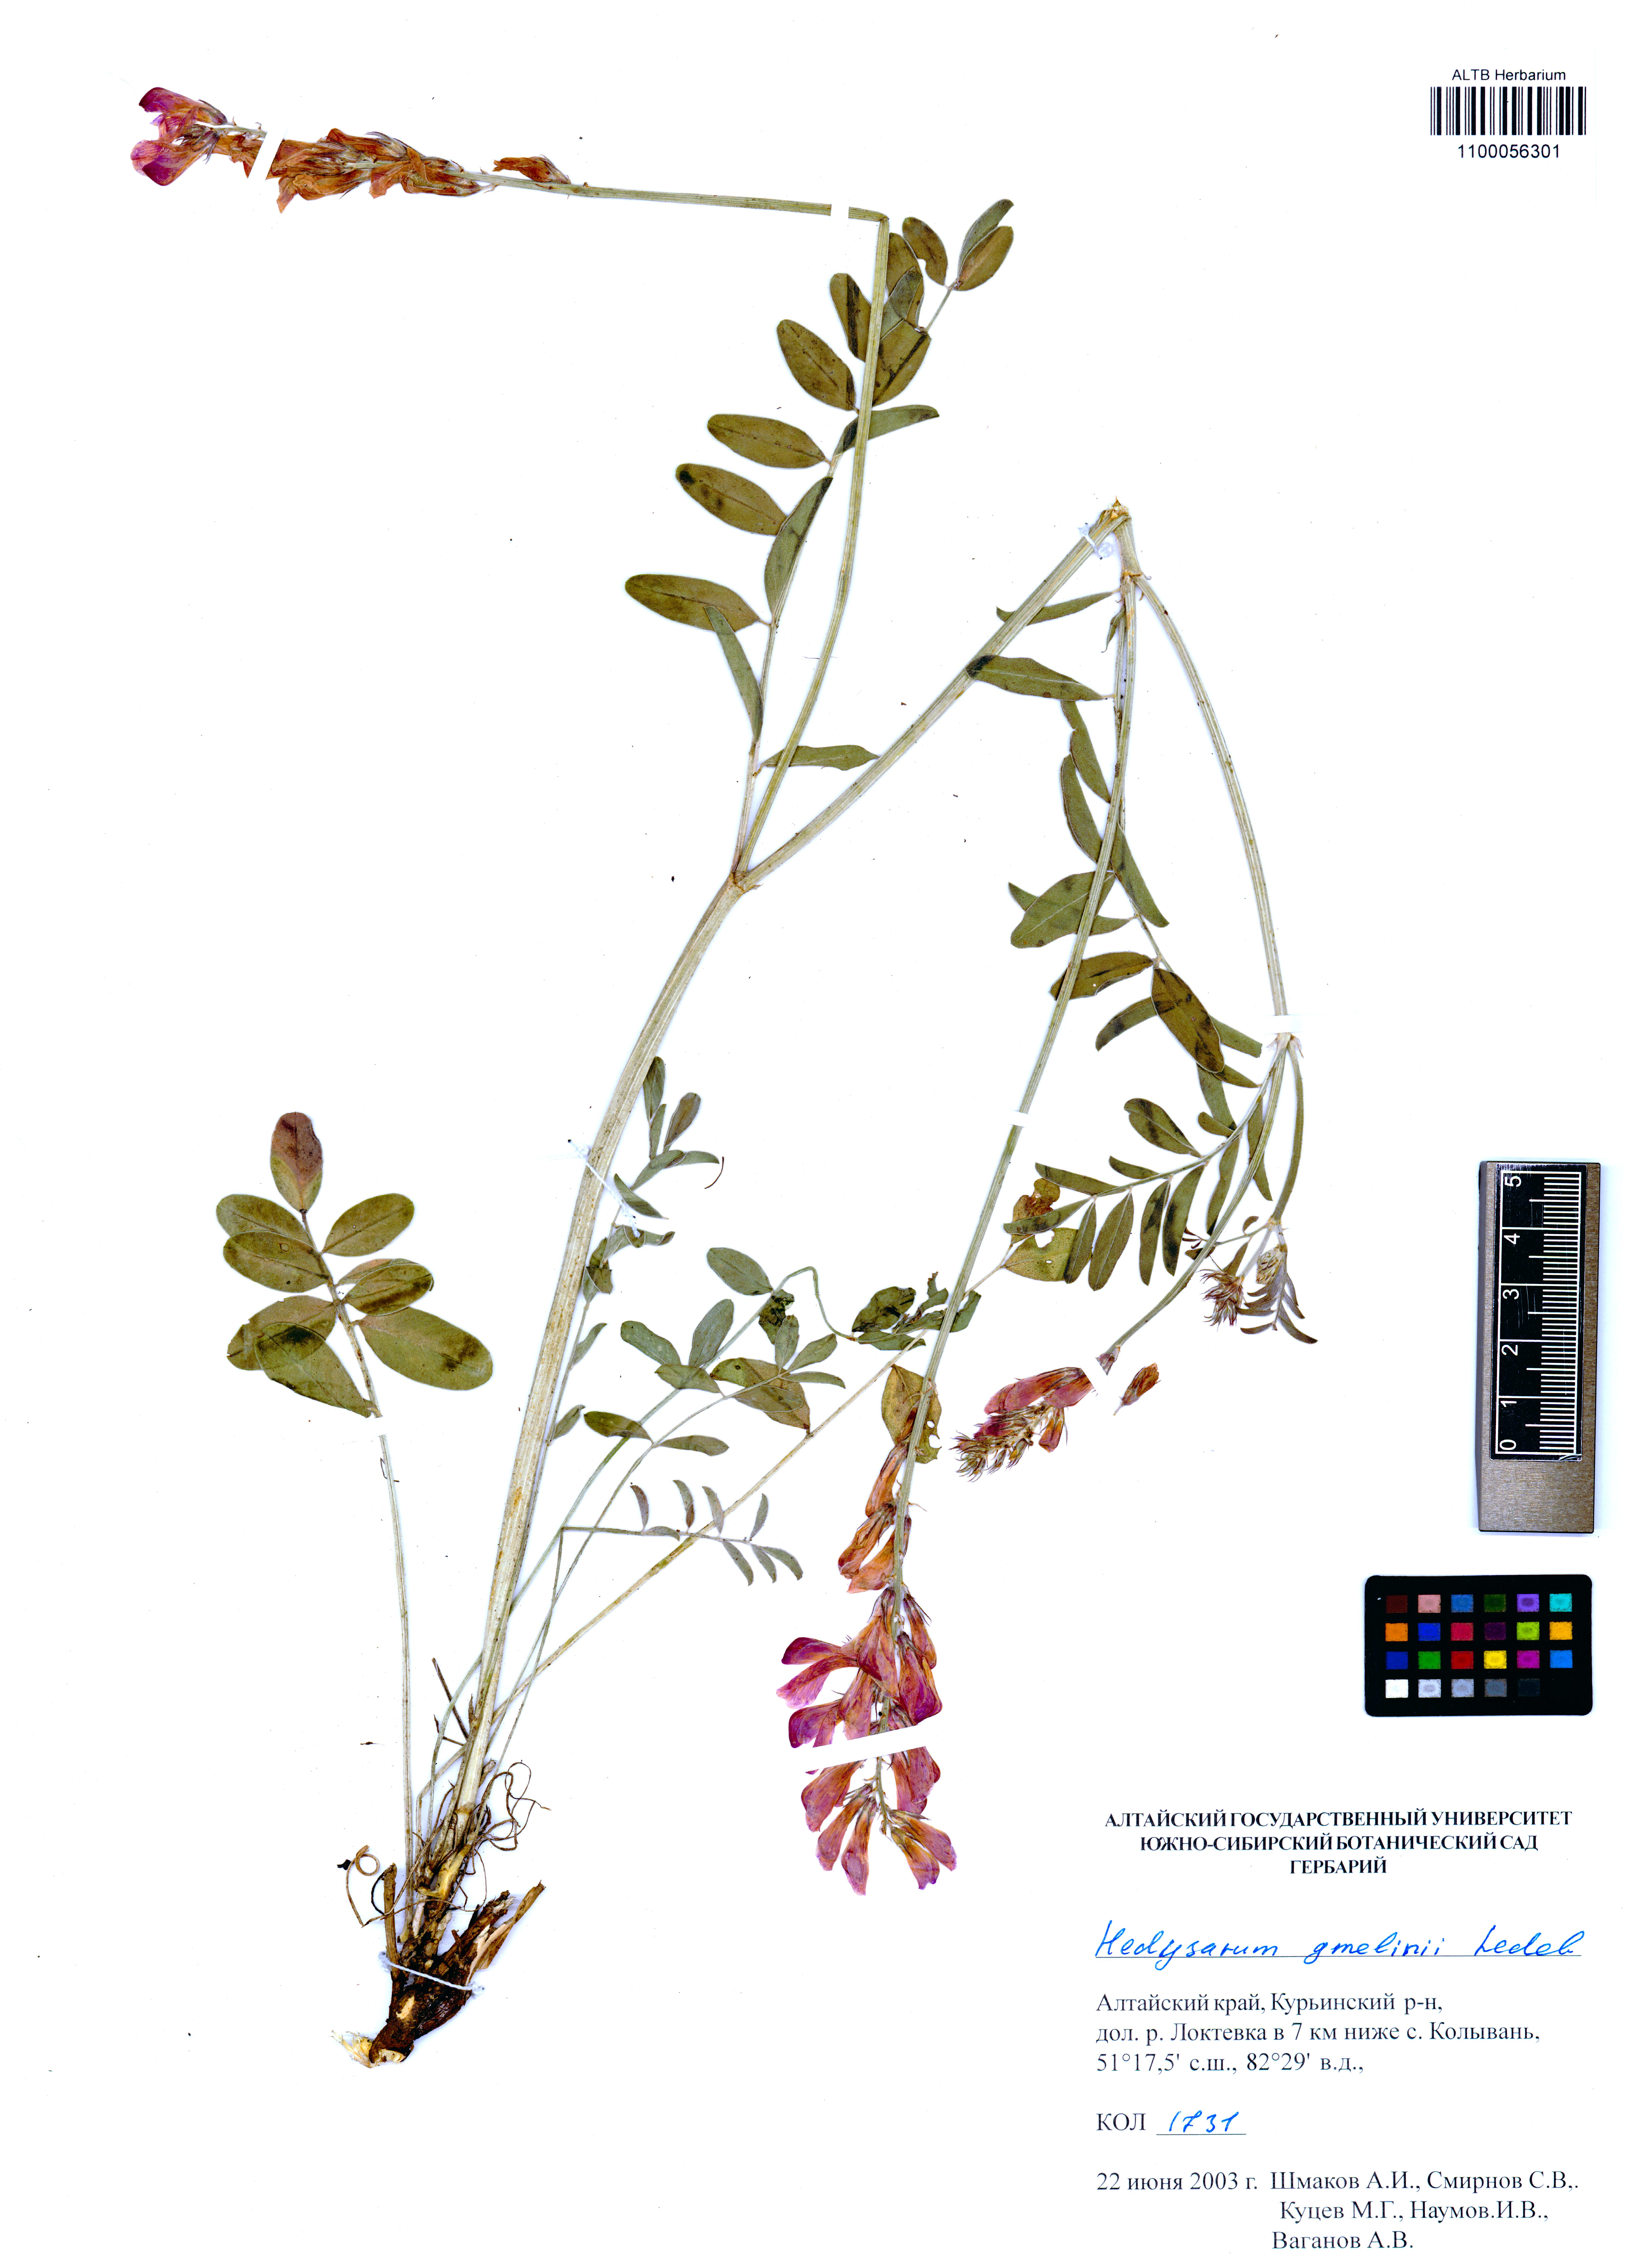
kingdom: Plantae
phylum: Tracheophyta
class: Magnoliopsida
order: Fabales
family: Fabaceae
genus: Hedysarum
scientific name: Hedysarum gmelinii
